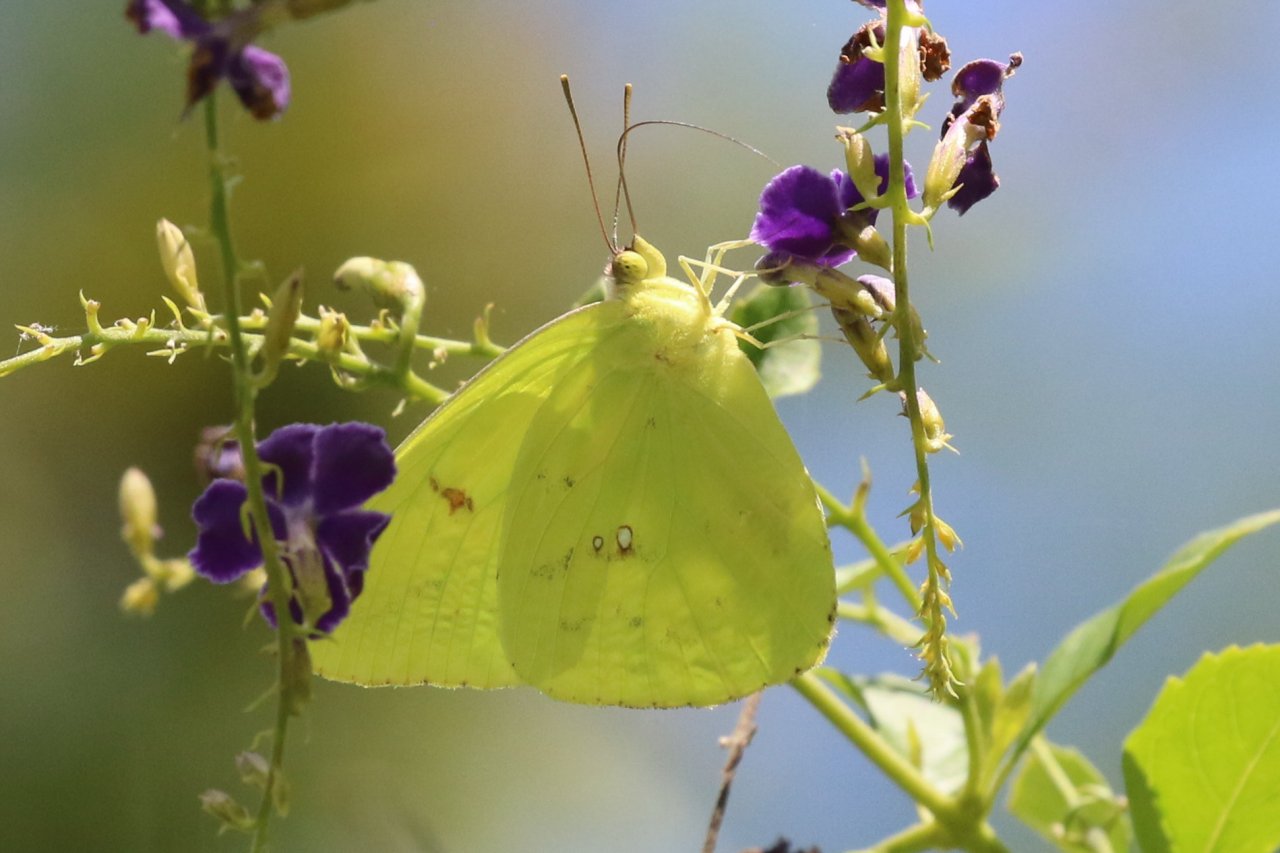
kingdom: Animalia
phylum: Arthropoda
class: Insecta
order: Lepidoptera
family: Pieridae
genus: Phoebis
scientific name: Phoebis sennae
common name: Cloudless Sulphur
